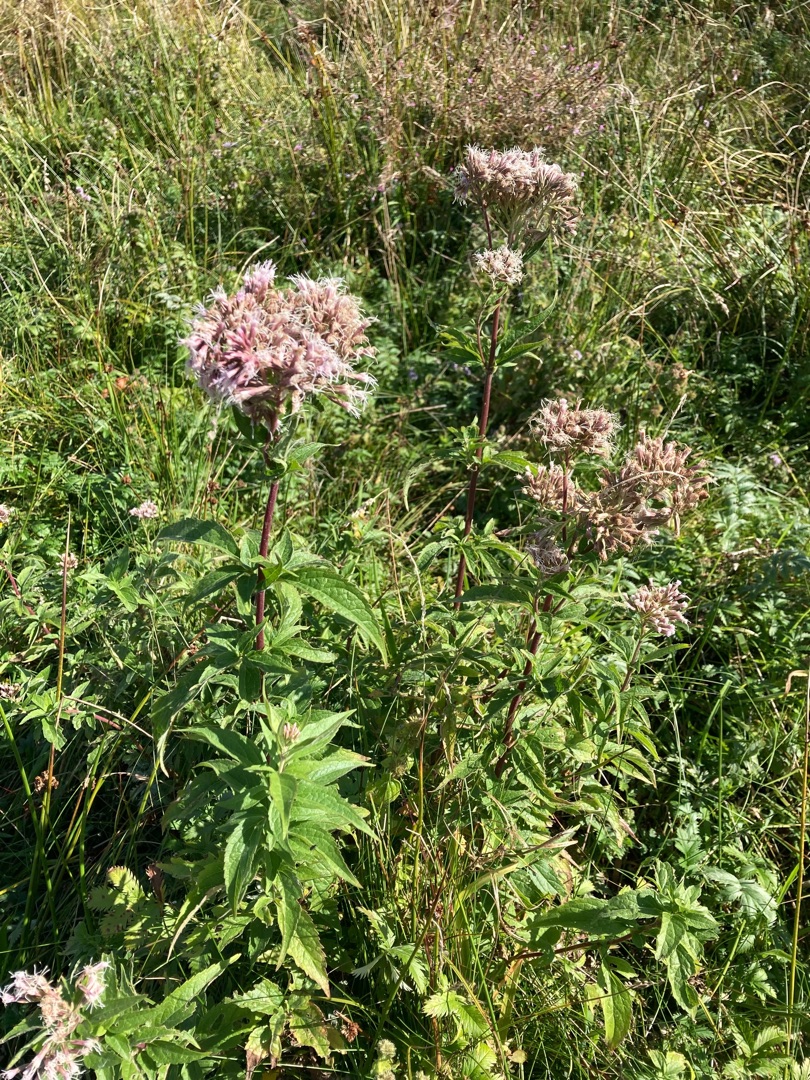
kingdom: Plantae
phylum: Tracheophyta
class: Magnoliopsida
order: Asterales
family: Asteraceae
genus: Eupatorium
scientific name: Eupatorium cannabinum
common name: Hjortetrøst
